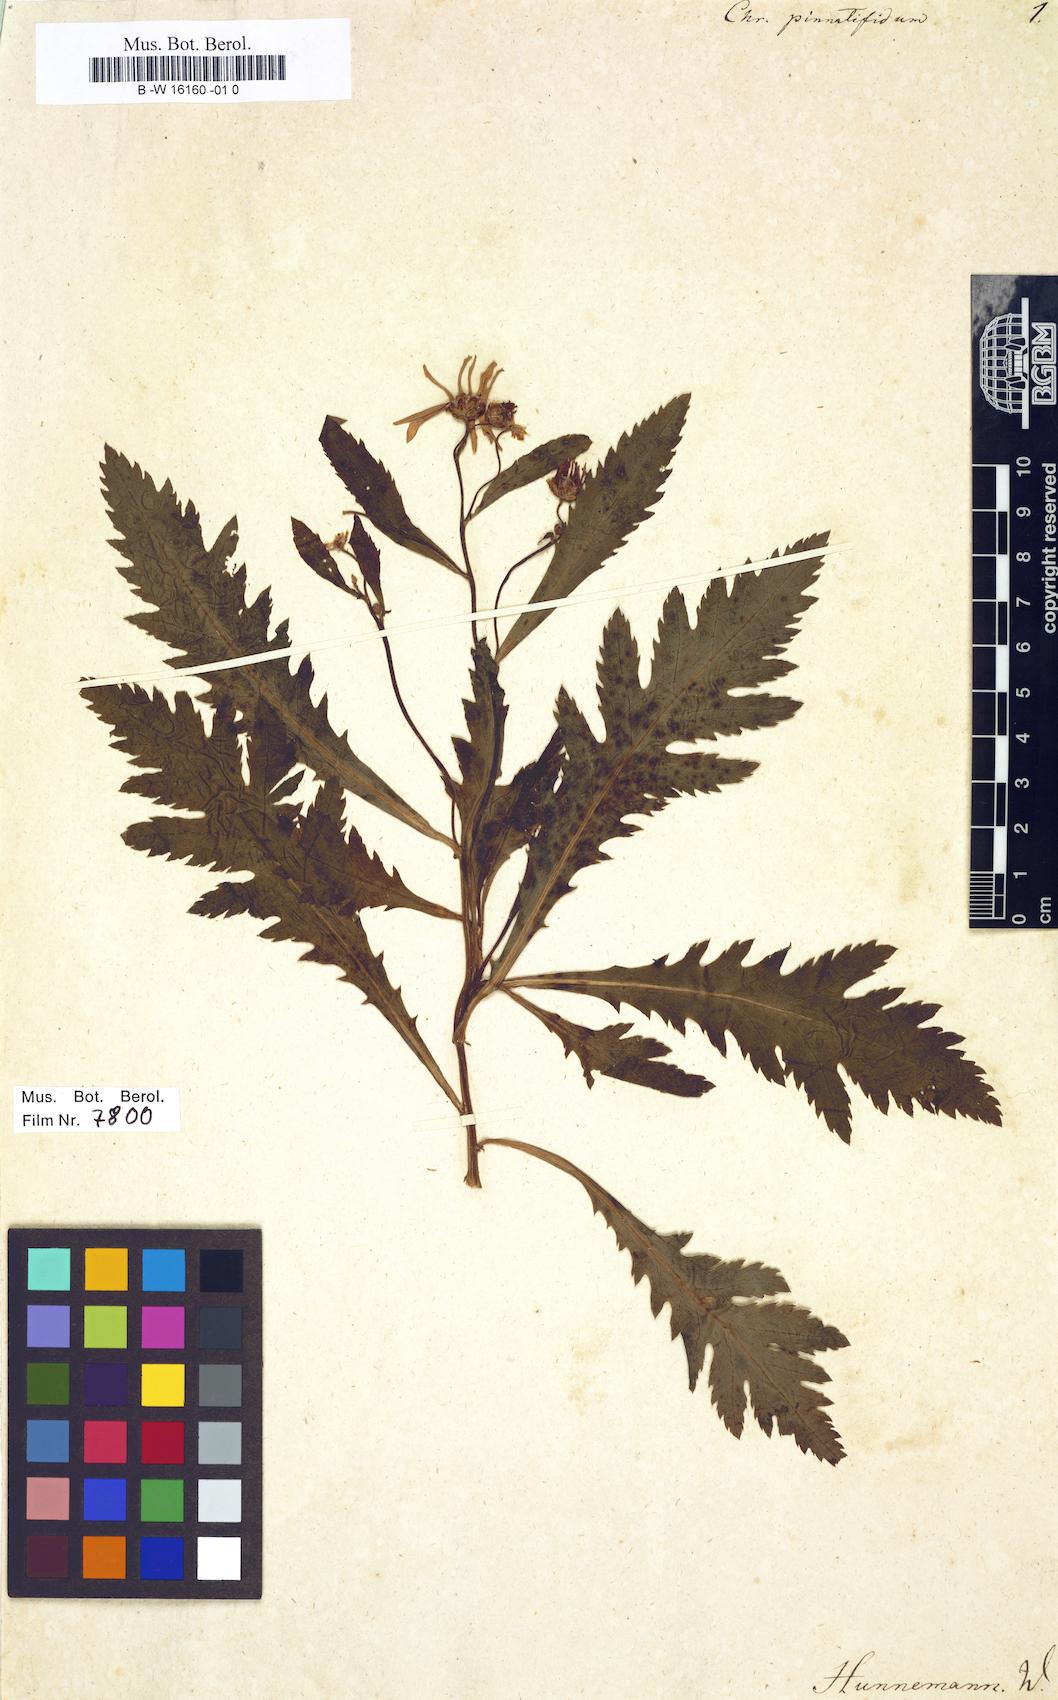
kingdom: Plantae
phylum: Tracheophyta
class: Magnoliopsida
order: Asterales
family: Asteraceae
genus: Argyranthemum
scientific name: Argyranthemum pinnatifidum
